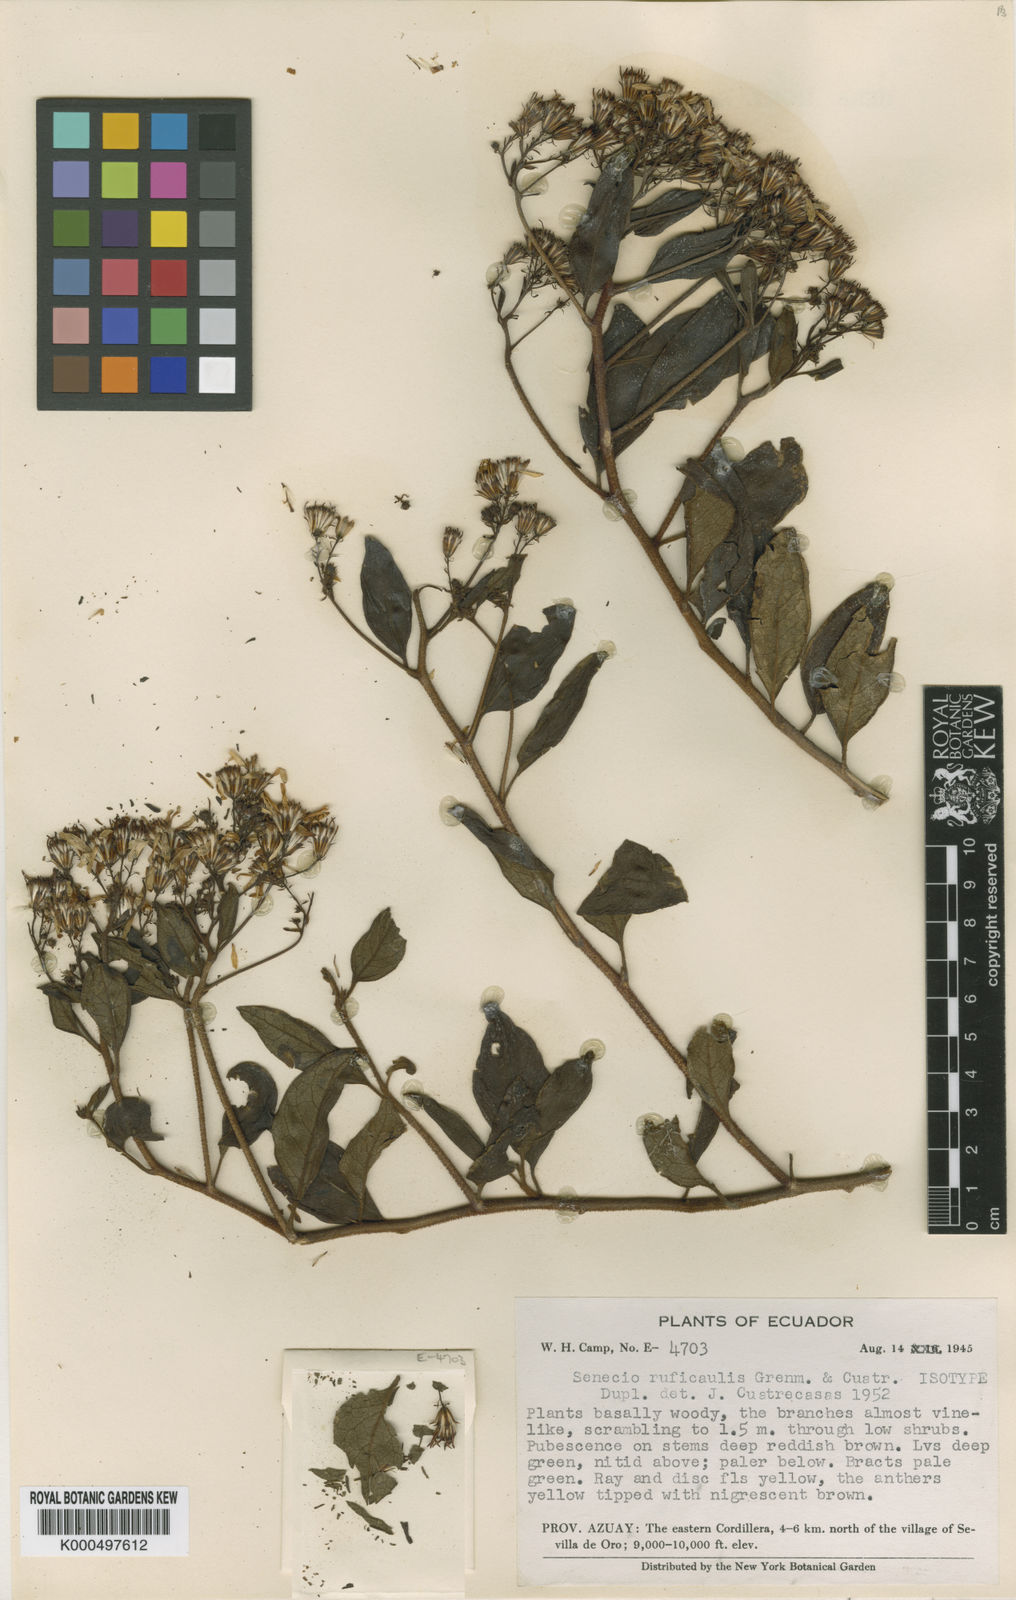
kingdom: Plantae
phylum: Tracheophyta
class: Magnoliopsida
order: Asterales
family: Asteraceae
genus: Pentacalia
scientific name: Pentacalia ruficaulis
